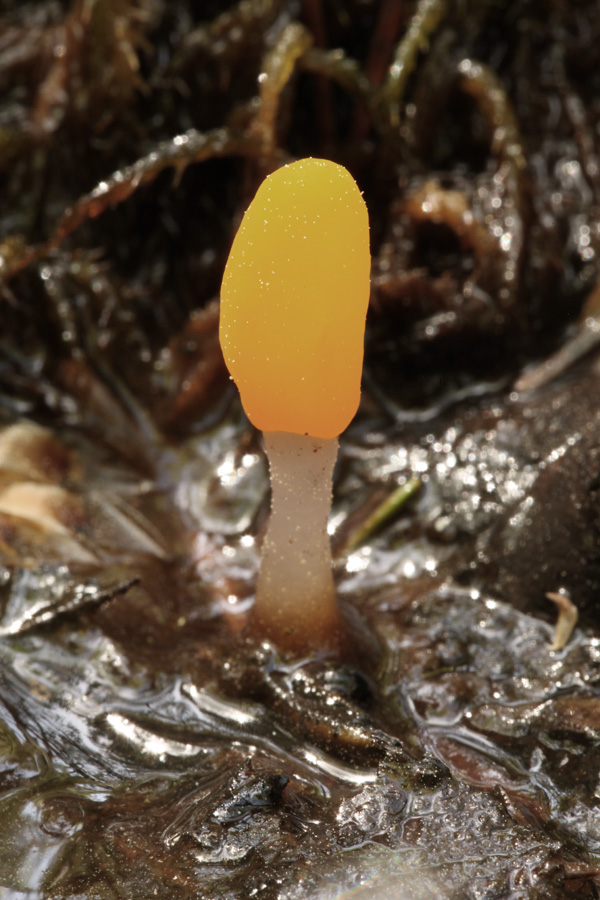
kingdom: Fungi
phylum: Ascomycota
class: Leotiomycetes
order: Helotiales
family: Cenangiaceae
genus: Mitrula
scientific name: Mitrula paludosa
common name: gul nøkketunge
